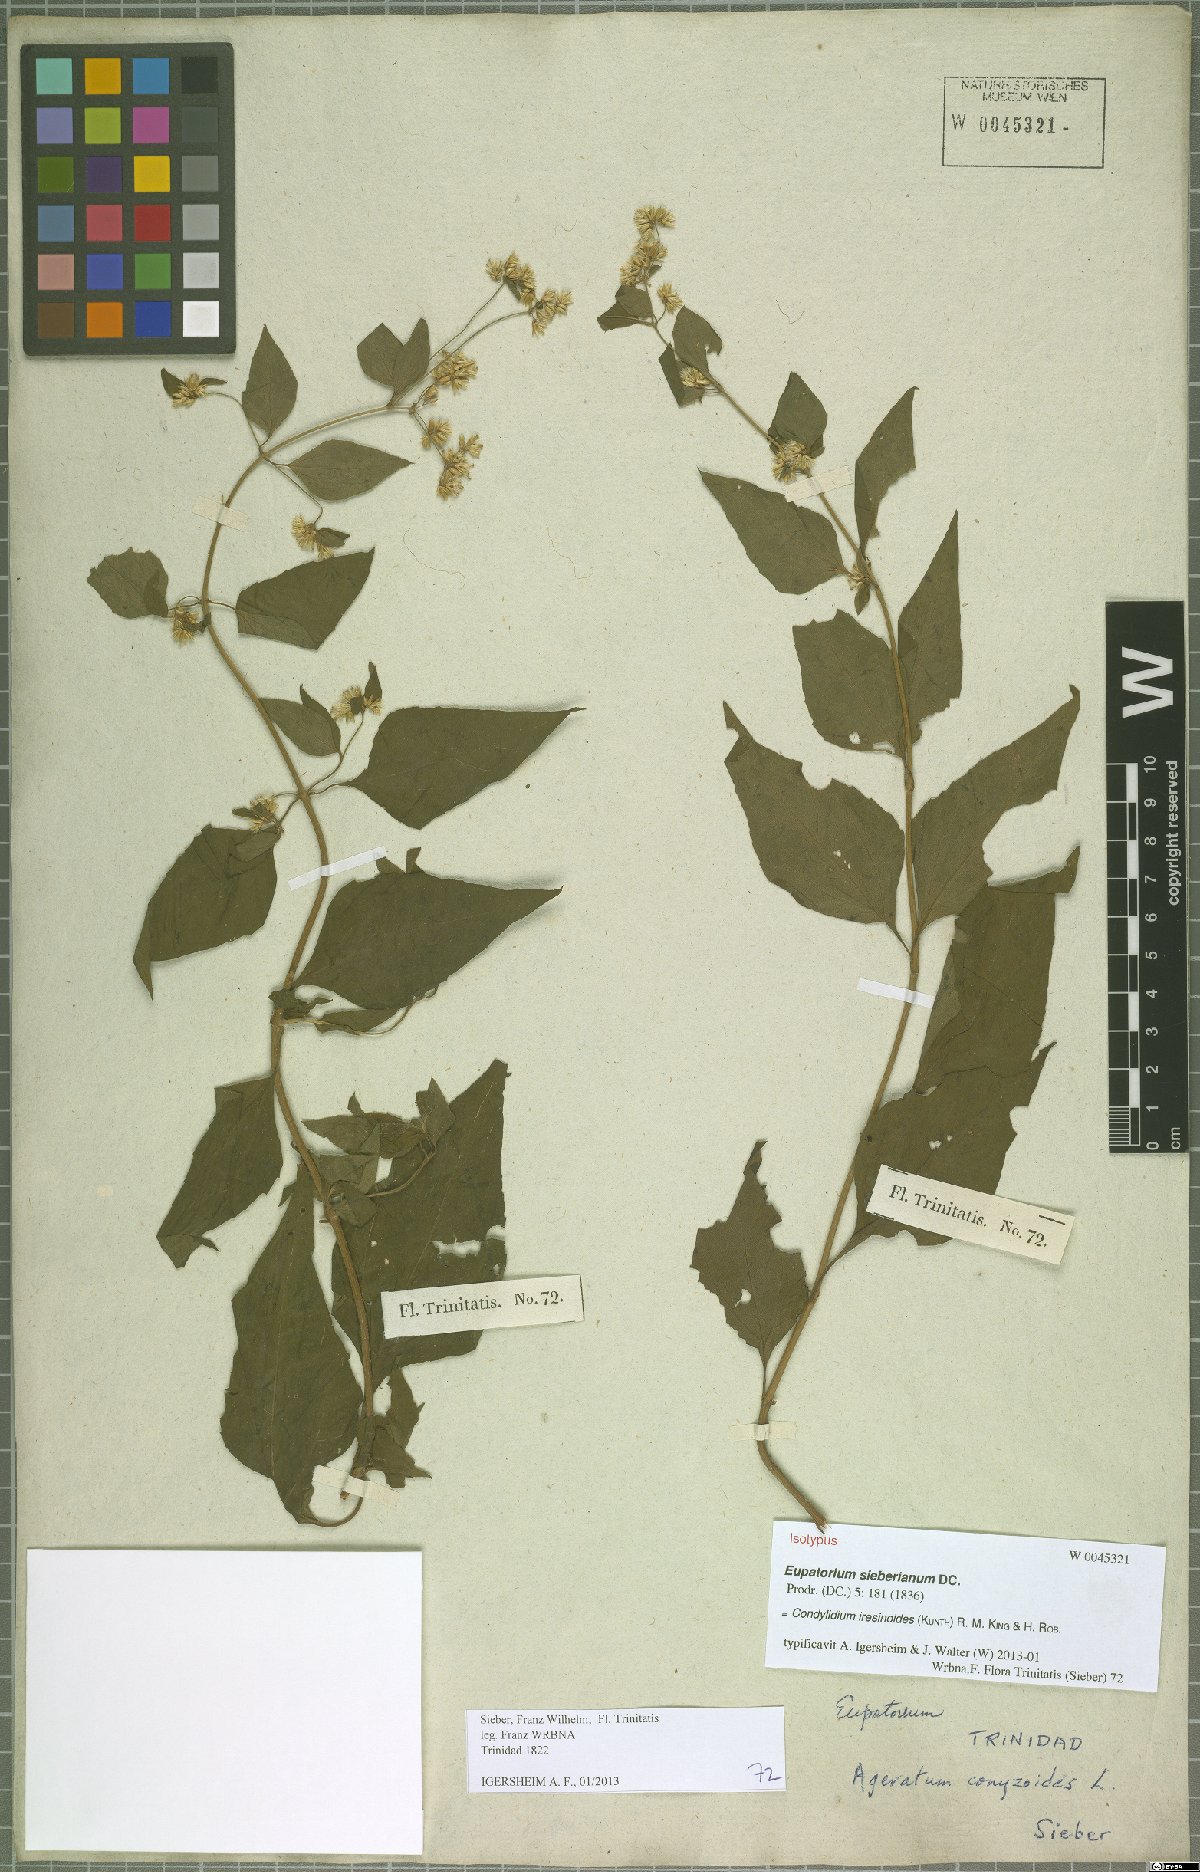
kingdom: Plantae
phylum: Tracheophyta
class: Magnoliopsida
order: Asterales
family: Asteraceae
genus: Condylidium
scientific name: Condylidium iresinoides
